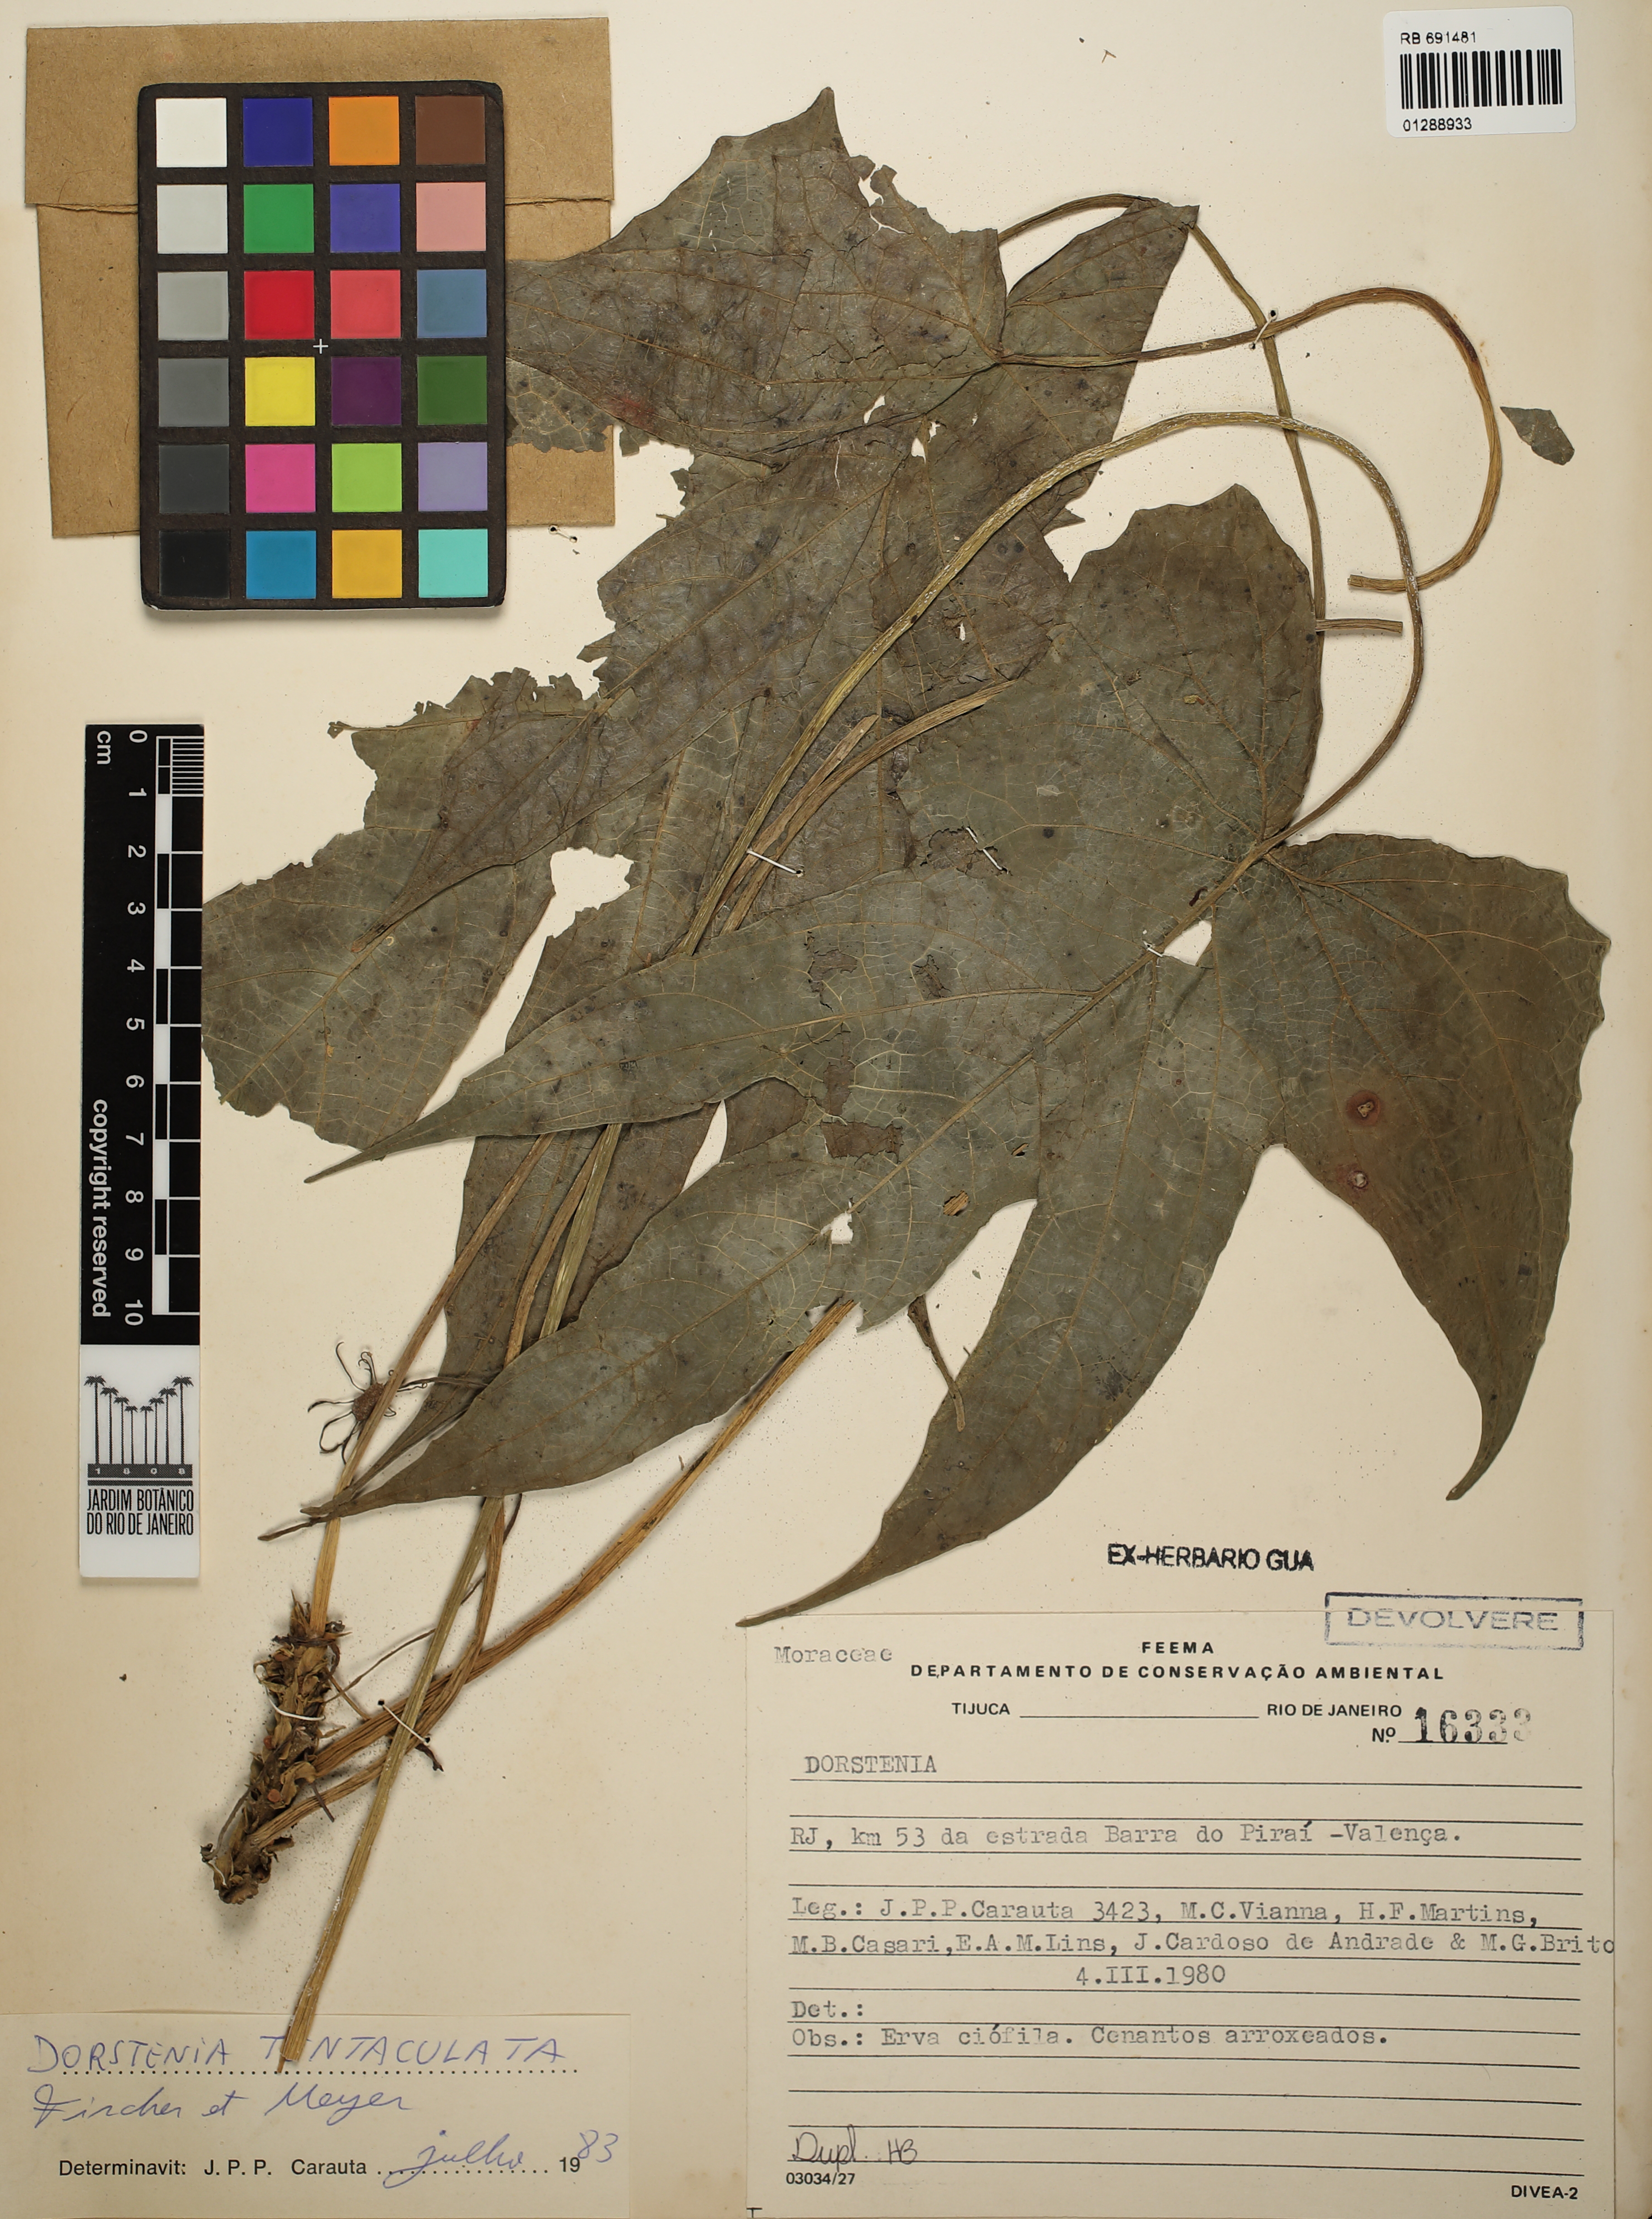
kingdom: Plantae
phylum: Tracheophyta
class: Magnoliopsida
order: Rosales
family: Moraceae
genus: Dorstenia
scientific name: Dorstenia tentaculata
